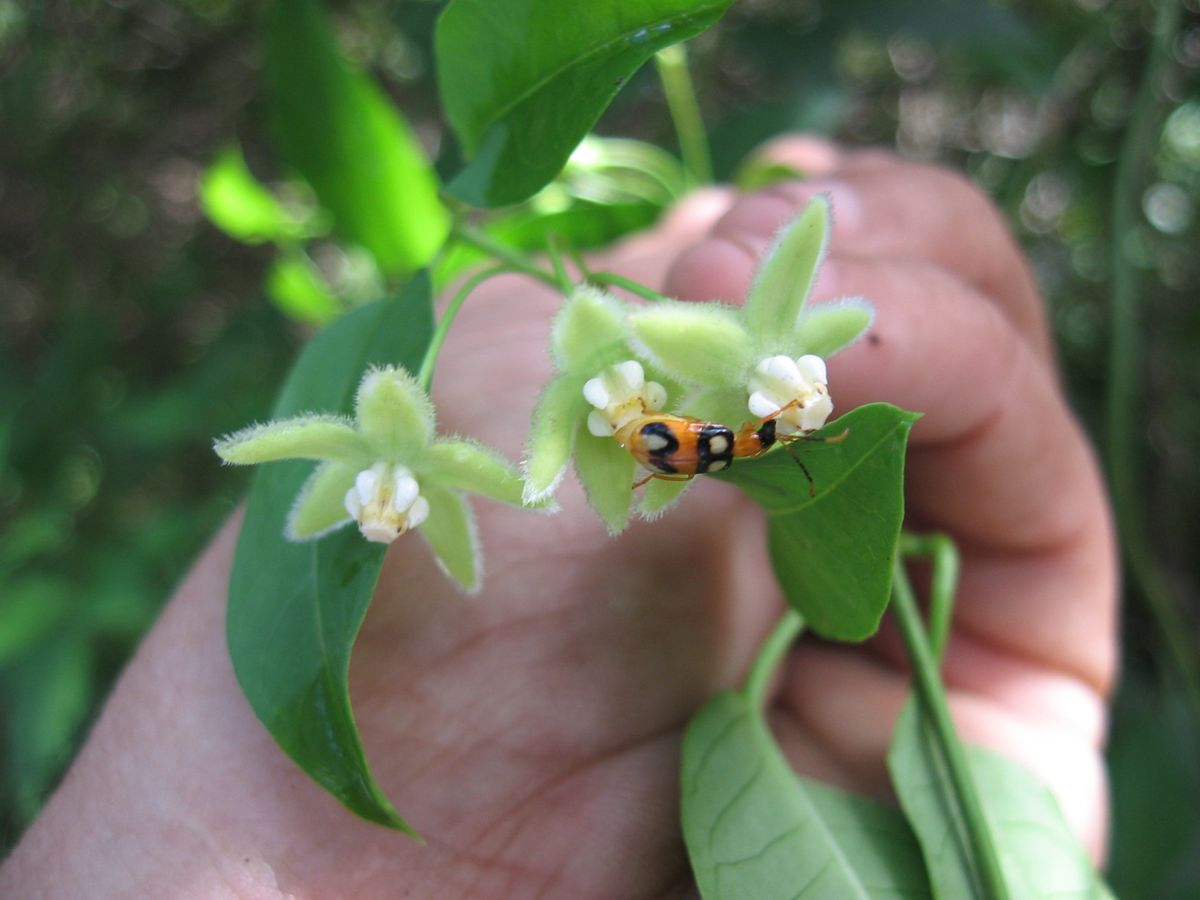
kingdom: Plantae
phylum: Tracheophyta
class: Magnoliopsida
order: Gentianales
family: Apocynaceae
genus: Vailia
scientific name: Vailia anomala
